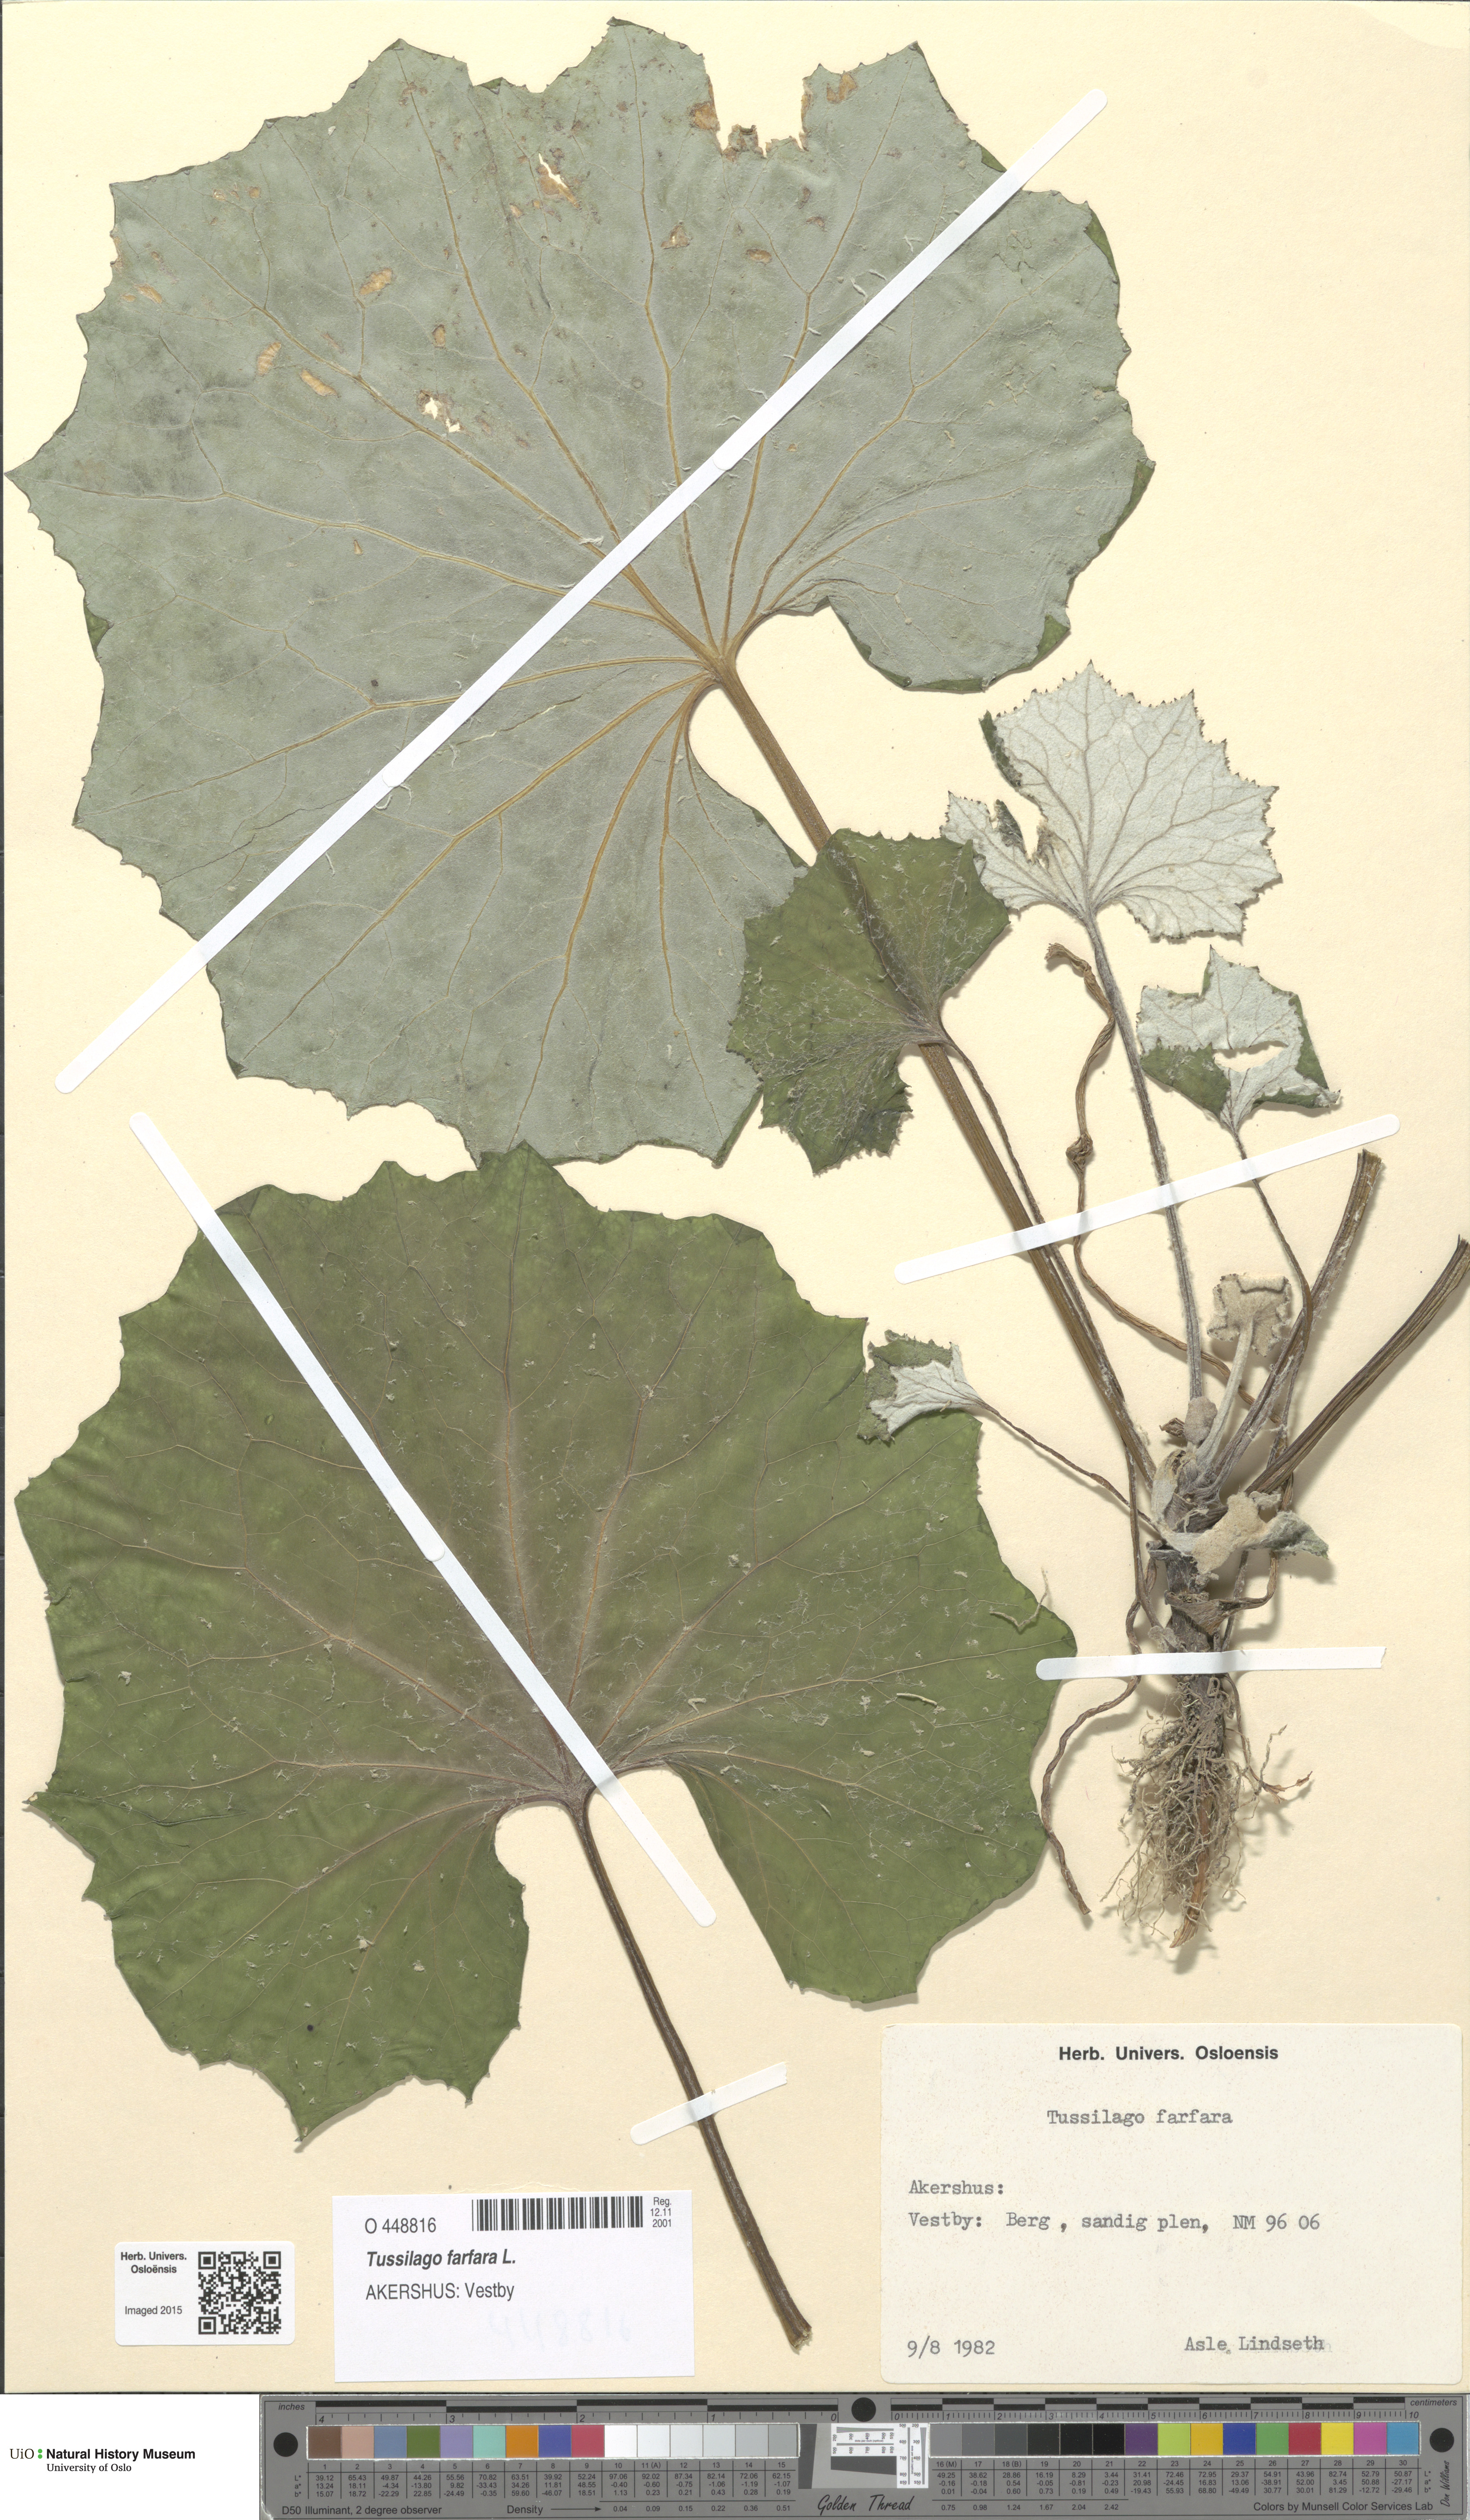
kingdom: Plantae
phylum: Tracheophyta
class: Magnoliopsida
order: Asterales
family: Asteraceae
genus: Tussilago
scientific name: Tussilago farfara
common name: Coltsfoot
